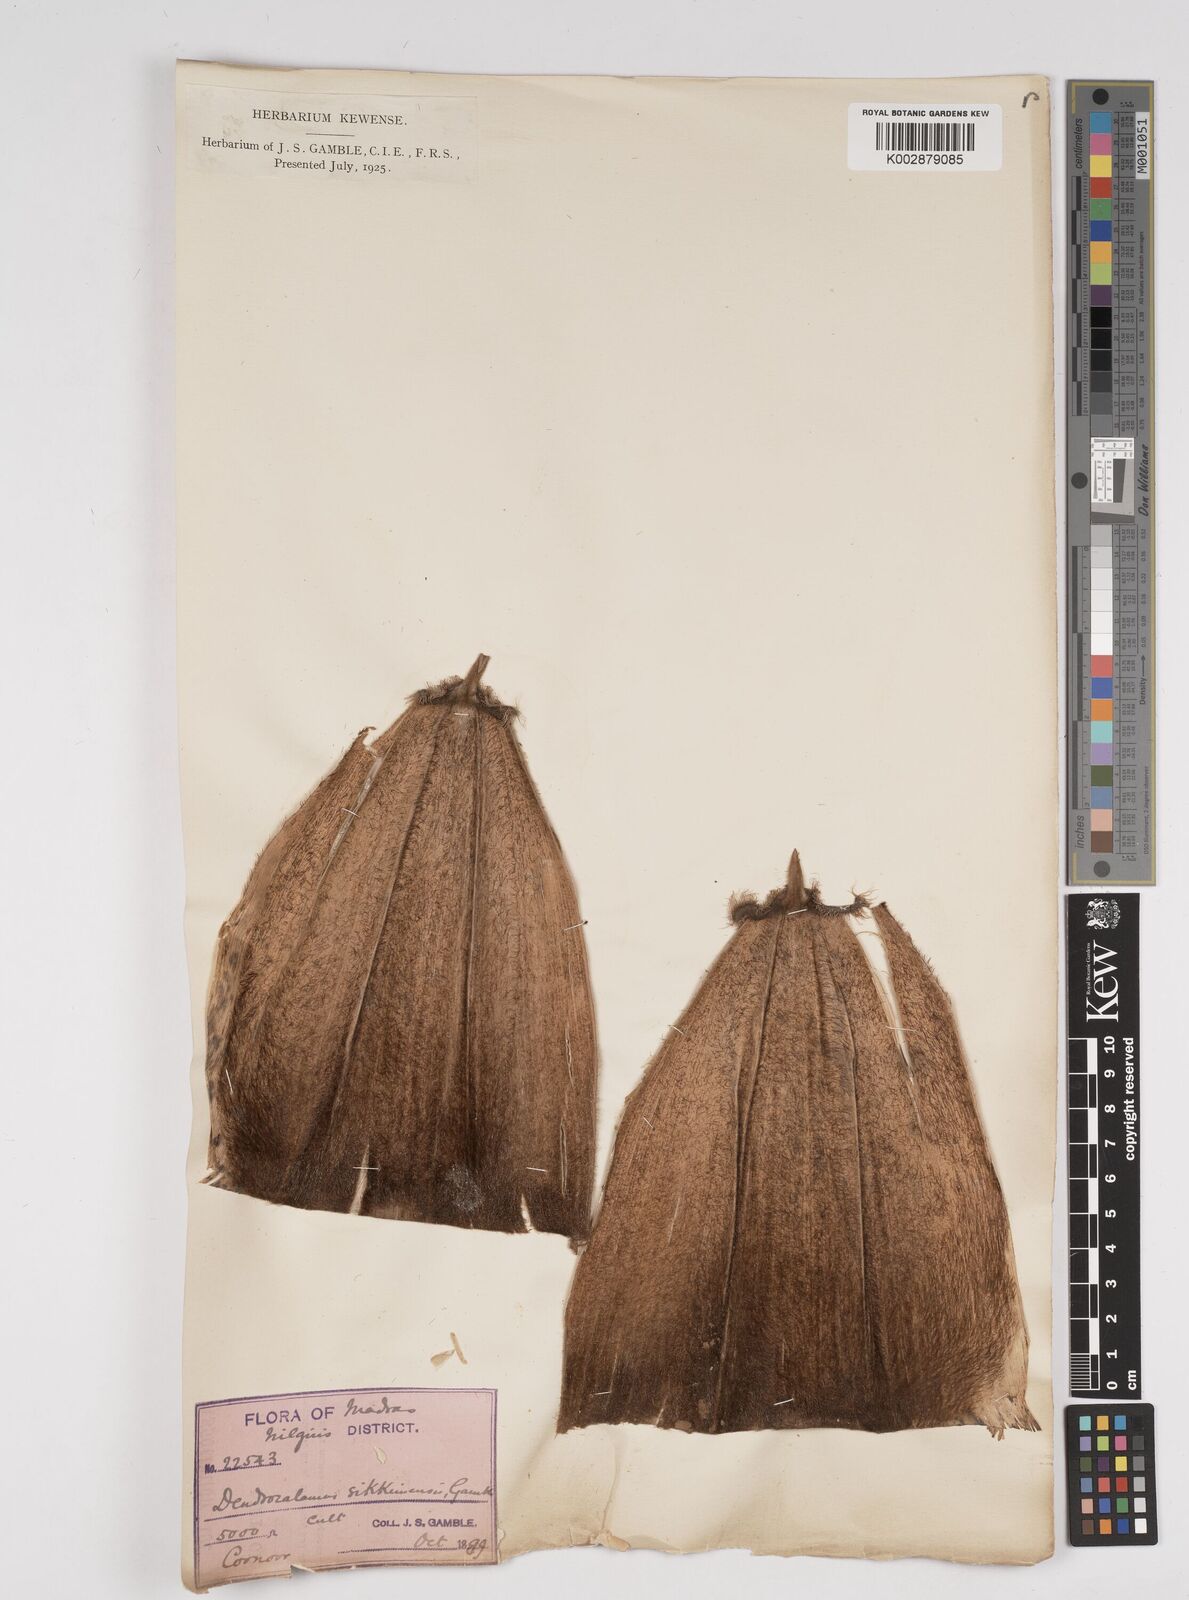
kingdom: Plantae
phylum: Tracheophyta
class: Liliopsida
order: Poales
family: Poaceae
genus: Dendrocalamus
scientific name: Dendrocalamus sikkimensis
